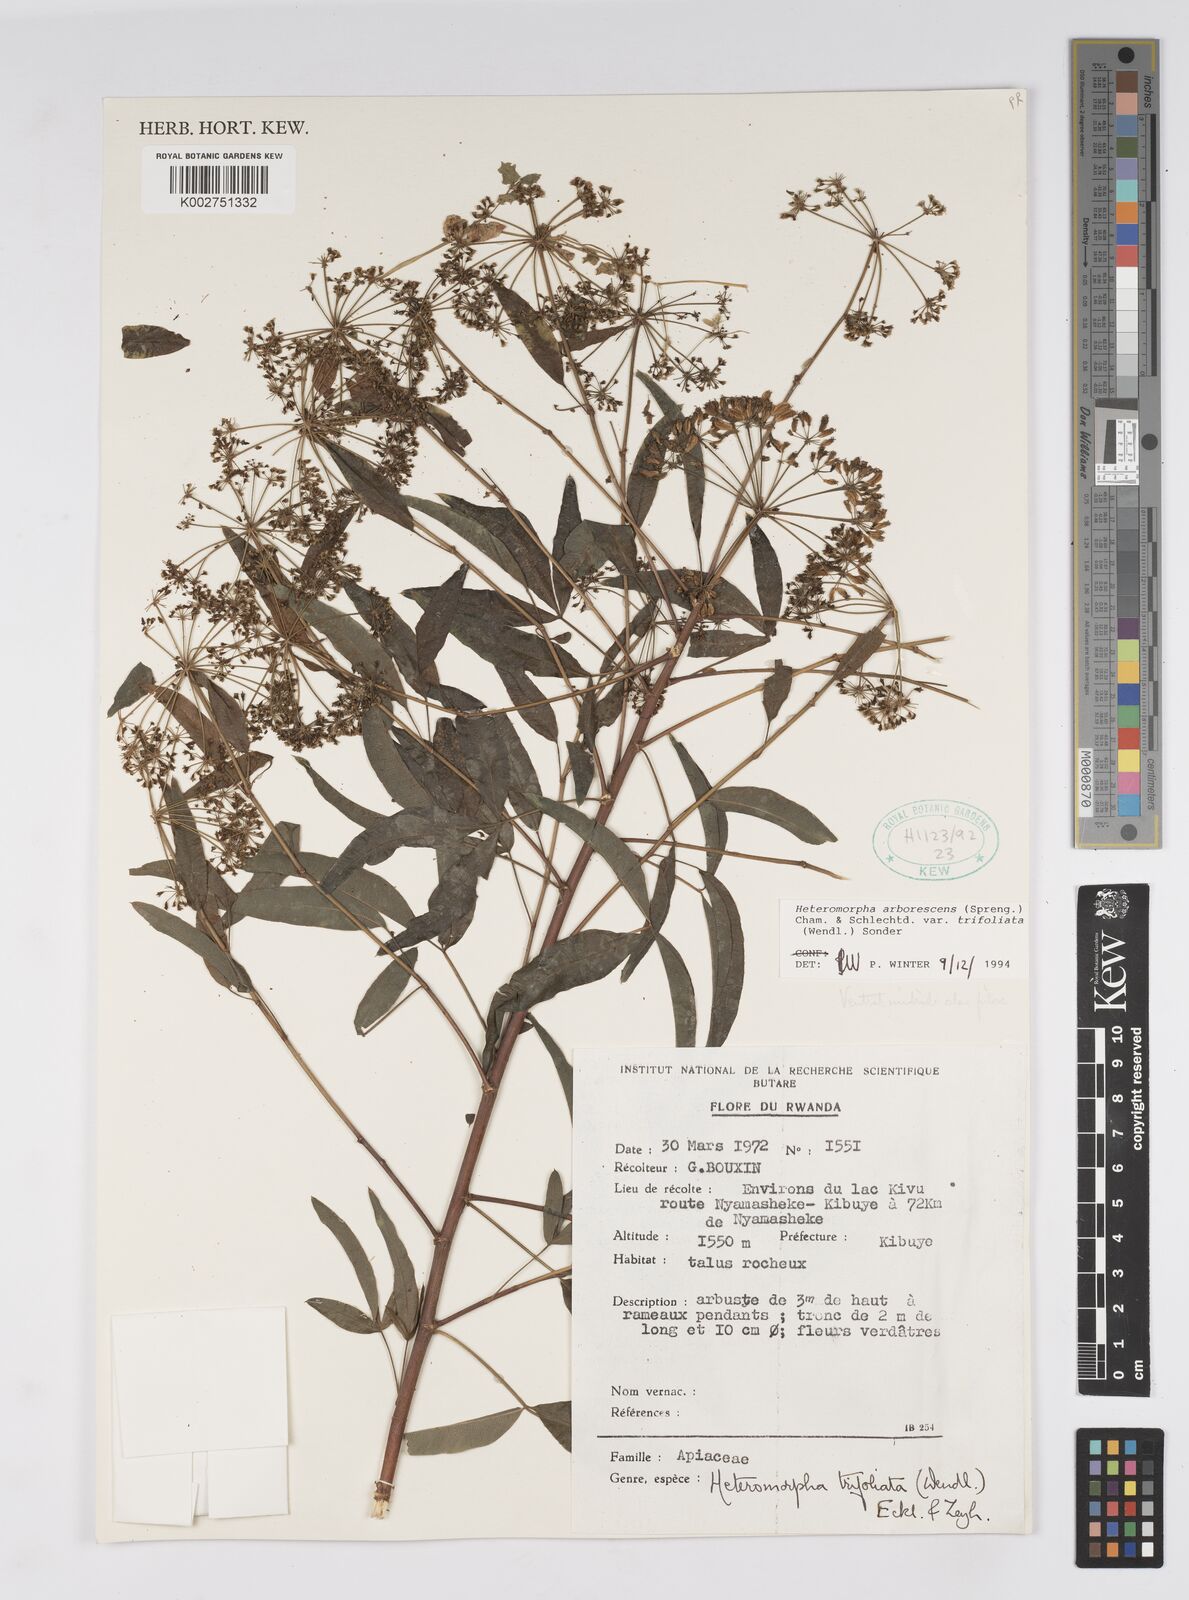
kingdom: Plantae
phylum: Tracheophyta
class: Magnoliopsida
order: Apiales
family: Apiaceae
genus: Heteromorpha
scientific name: Heteromorpha arborescens
